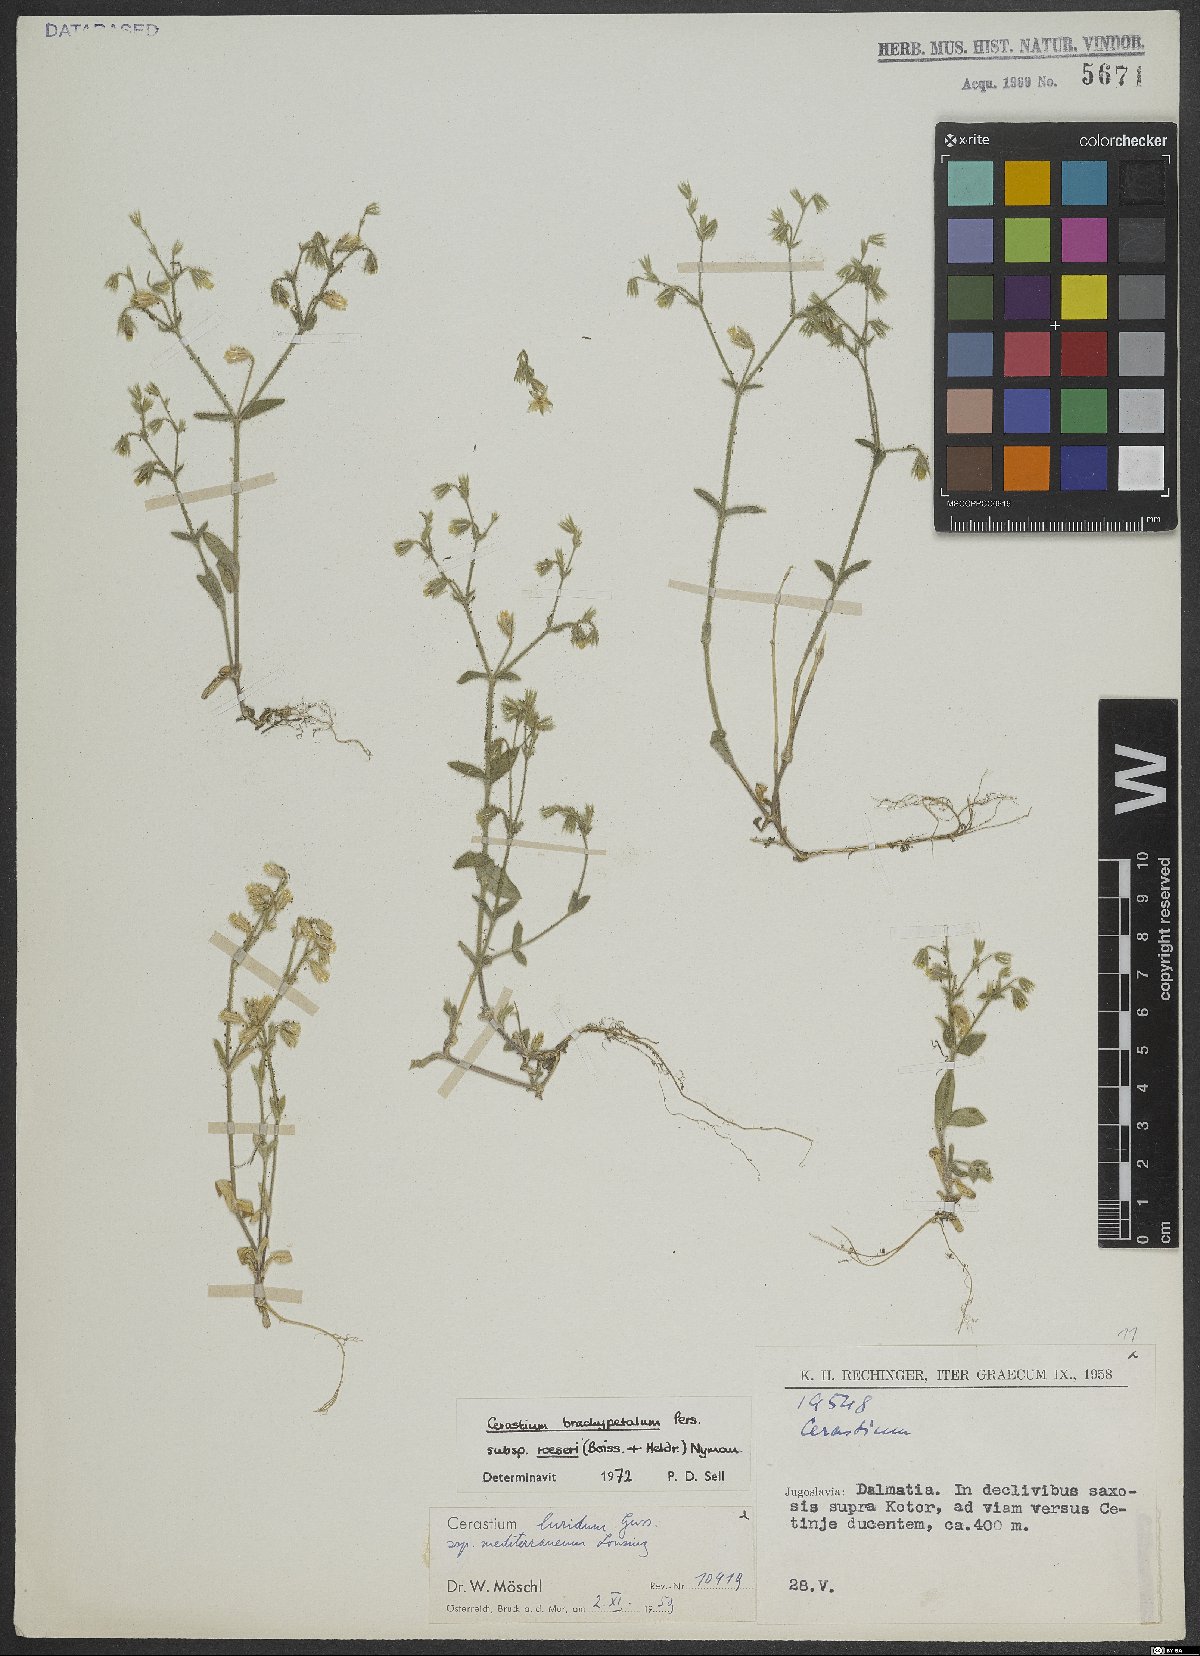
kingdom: Plantae
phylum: Tracheophyta
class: Magnoliopsida
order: Caryophyllales
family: Caryophyllaceae
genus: Cerastium
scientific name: Cerastium brachypetalum
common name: Grey mouse-ear
